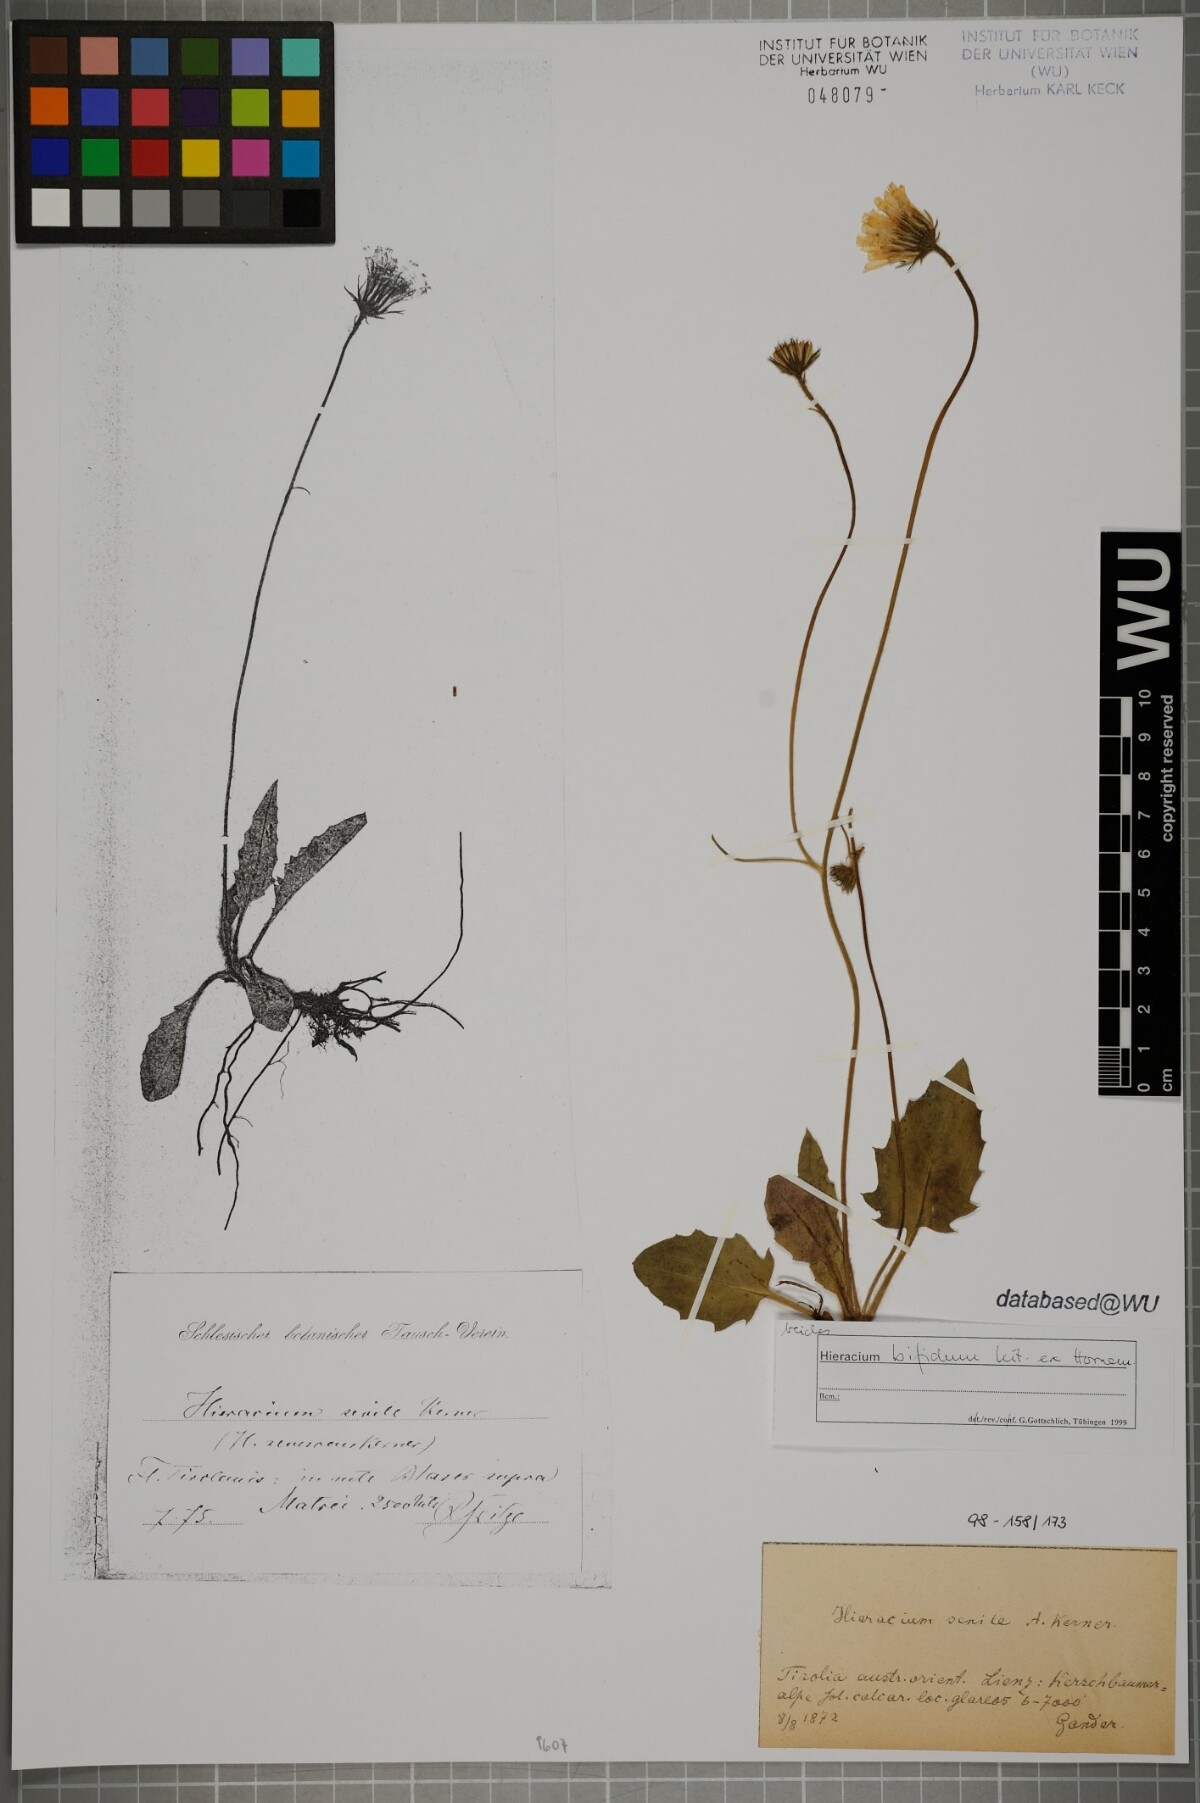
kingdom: Plantae
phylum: Tracheophyta
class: Magnoliopsida
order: Asterales
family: Asteraceae
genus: Hieracium
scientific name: Hieracium bifidum
